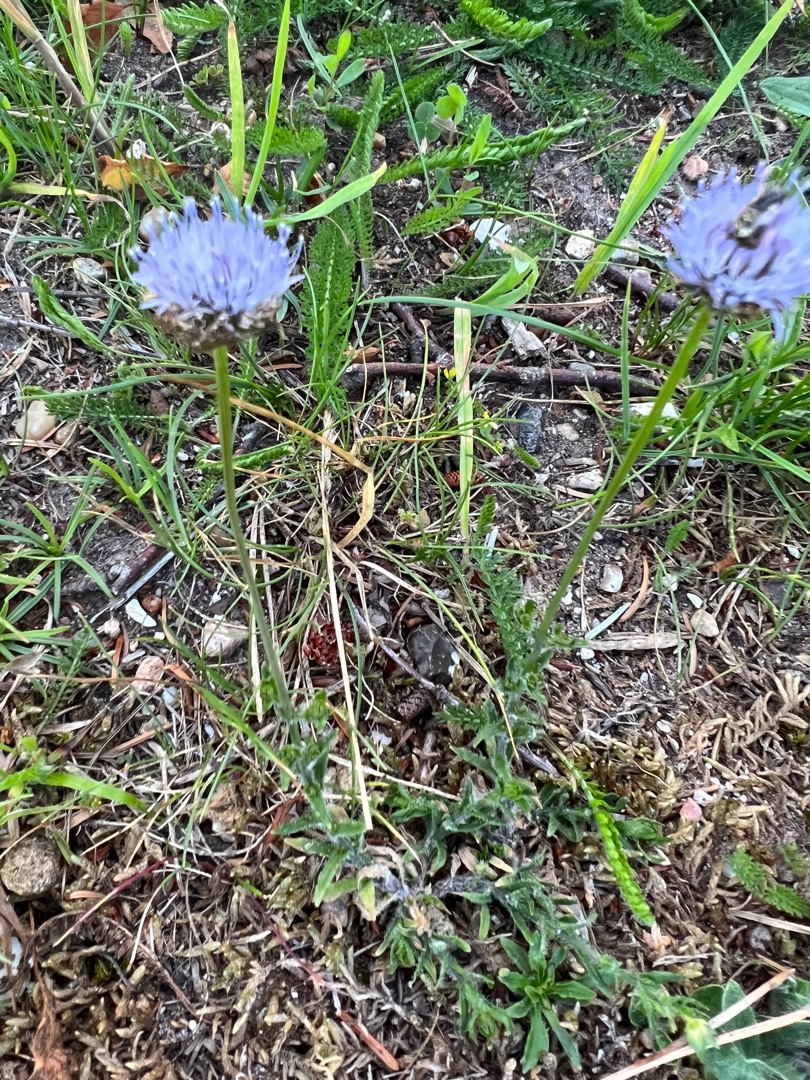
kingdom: Plantae
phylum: Tracheophyta
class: Magnoliopsida
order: Asterales
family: Campanulaceae
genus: Jasione
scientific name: Jasione montana
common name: Blåmunke
